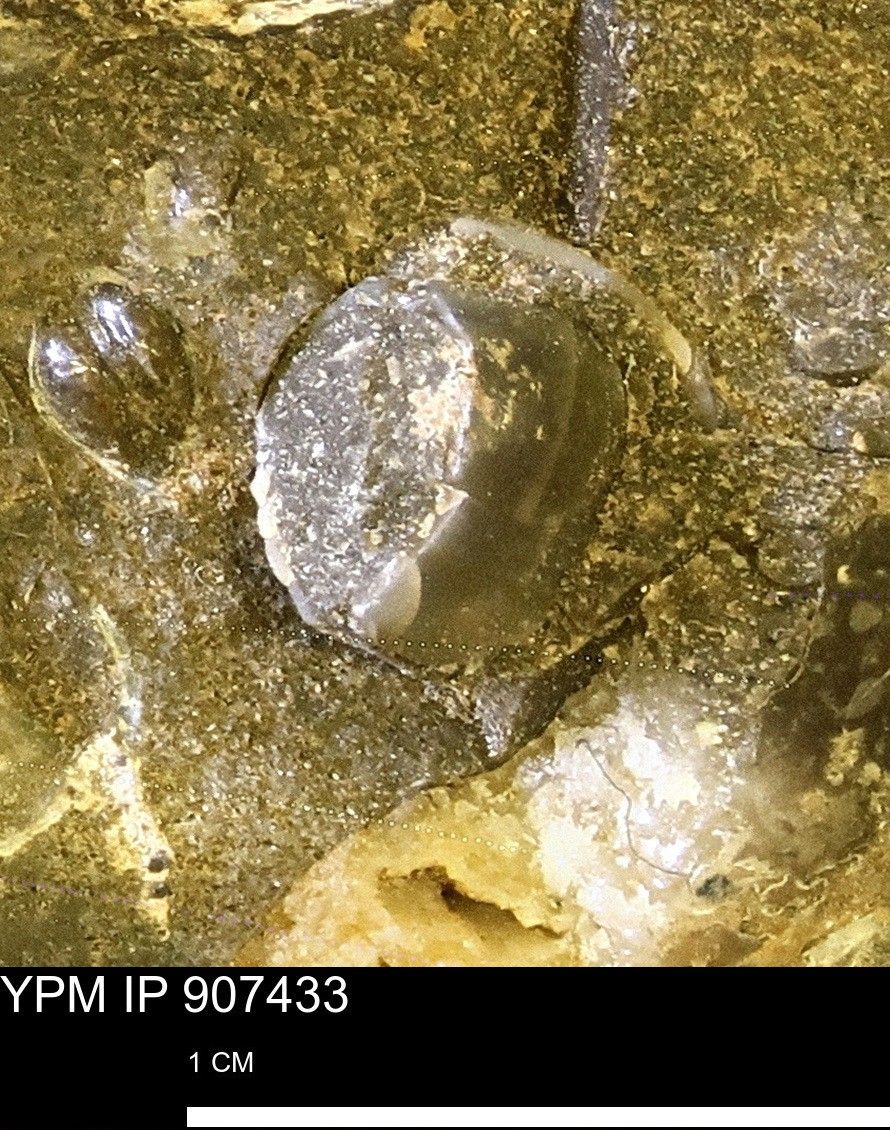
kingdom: Animalia
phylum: Mollusca
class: Bivalvia
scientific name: Bivalvia
